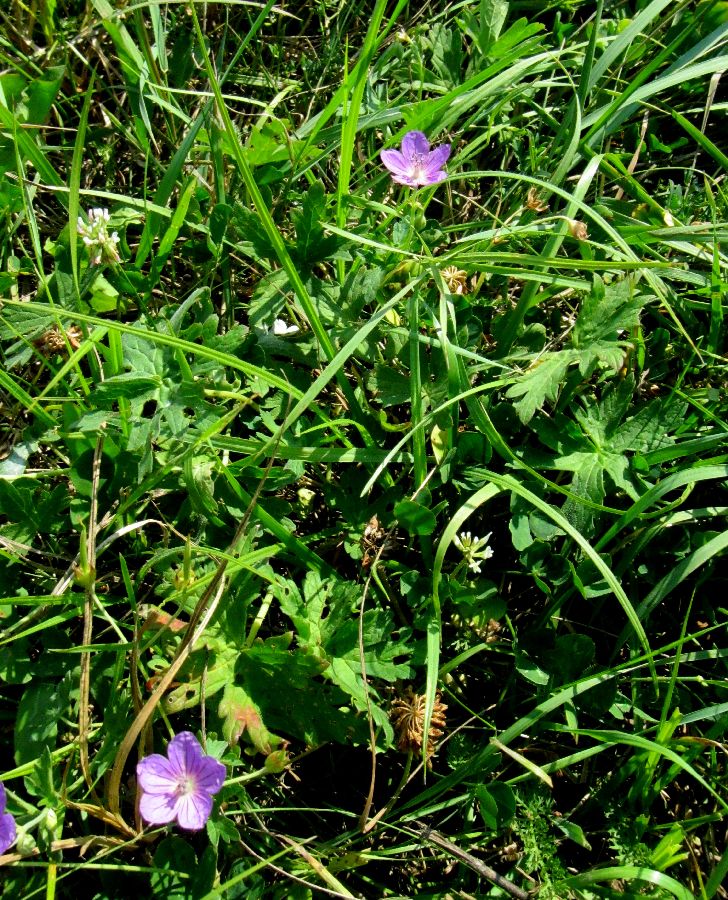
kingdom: Plantae
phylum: Tracheophyta
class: Magnoliopsida
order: Geraniales
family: Geraniaceae
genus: Geranium
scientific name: Geranium collinum
